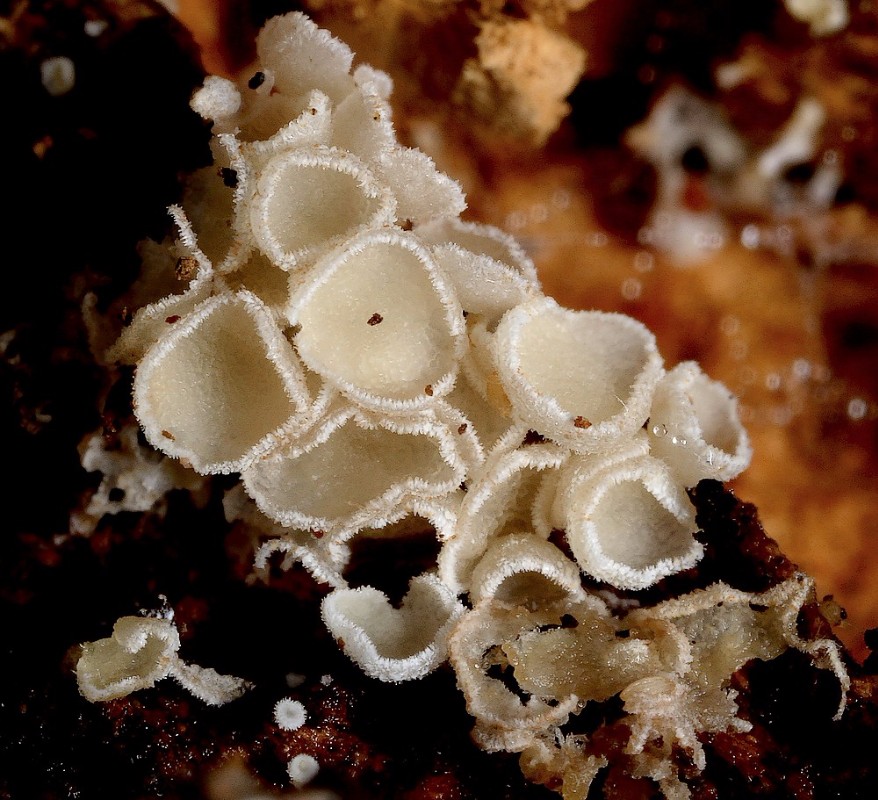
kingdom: Fungi
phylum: Ascomycota
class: Leotiomycetes
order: Helotiales
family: Lachnaceae
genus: Dasyscyphella
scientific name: Dasyscyphella nivea
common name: hvid frynseskive
